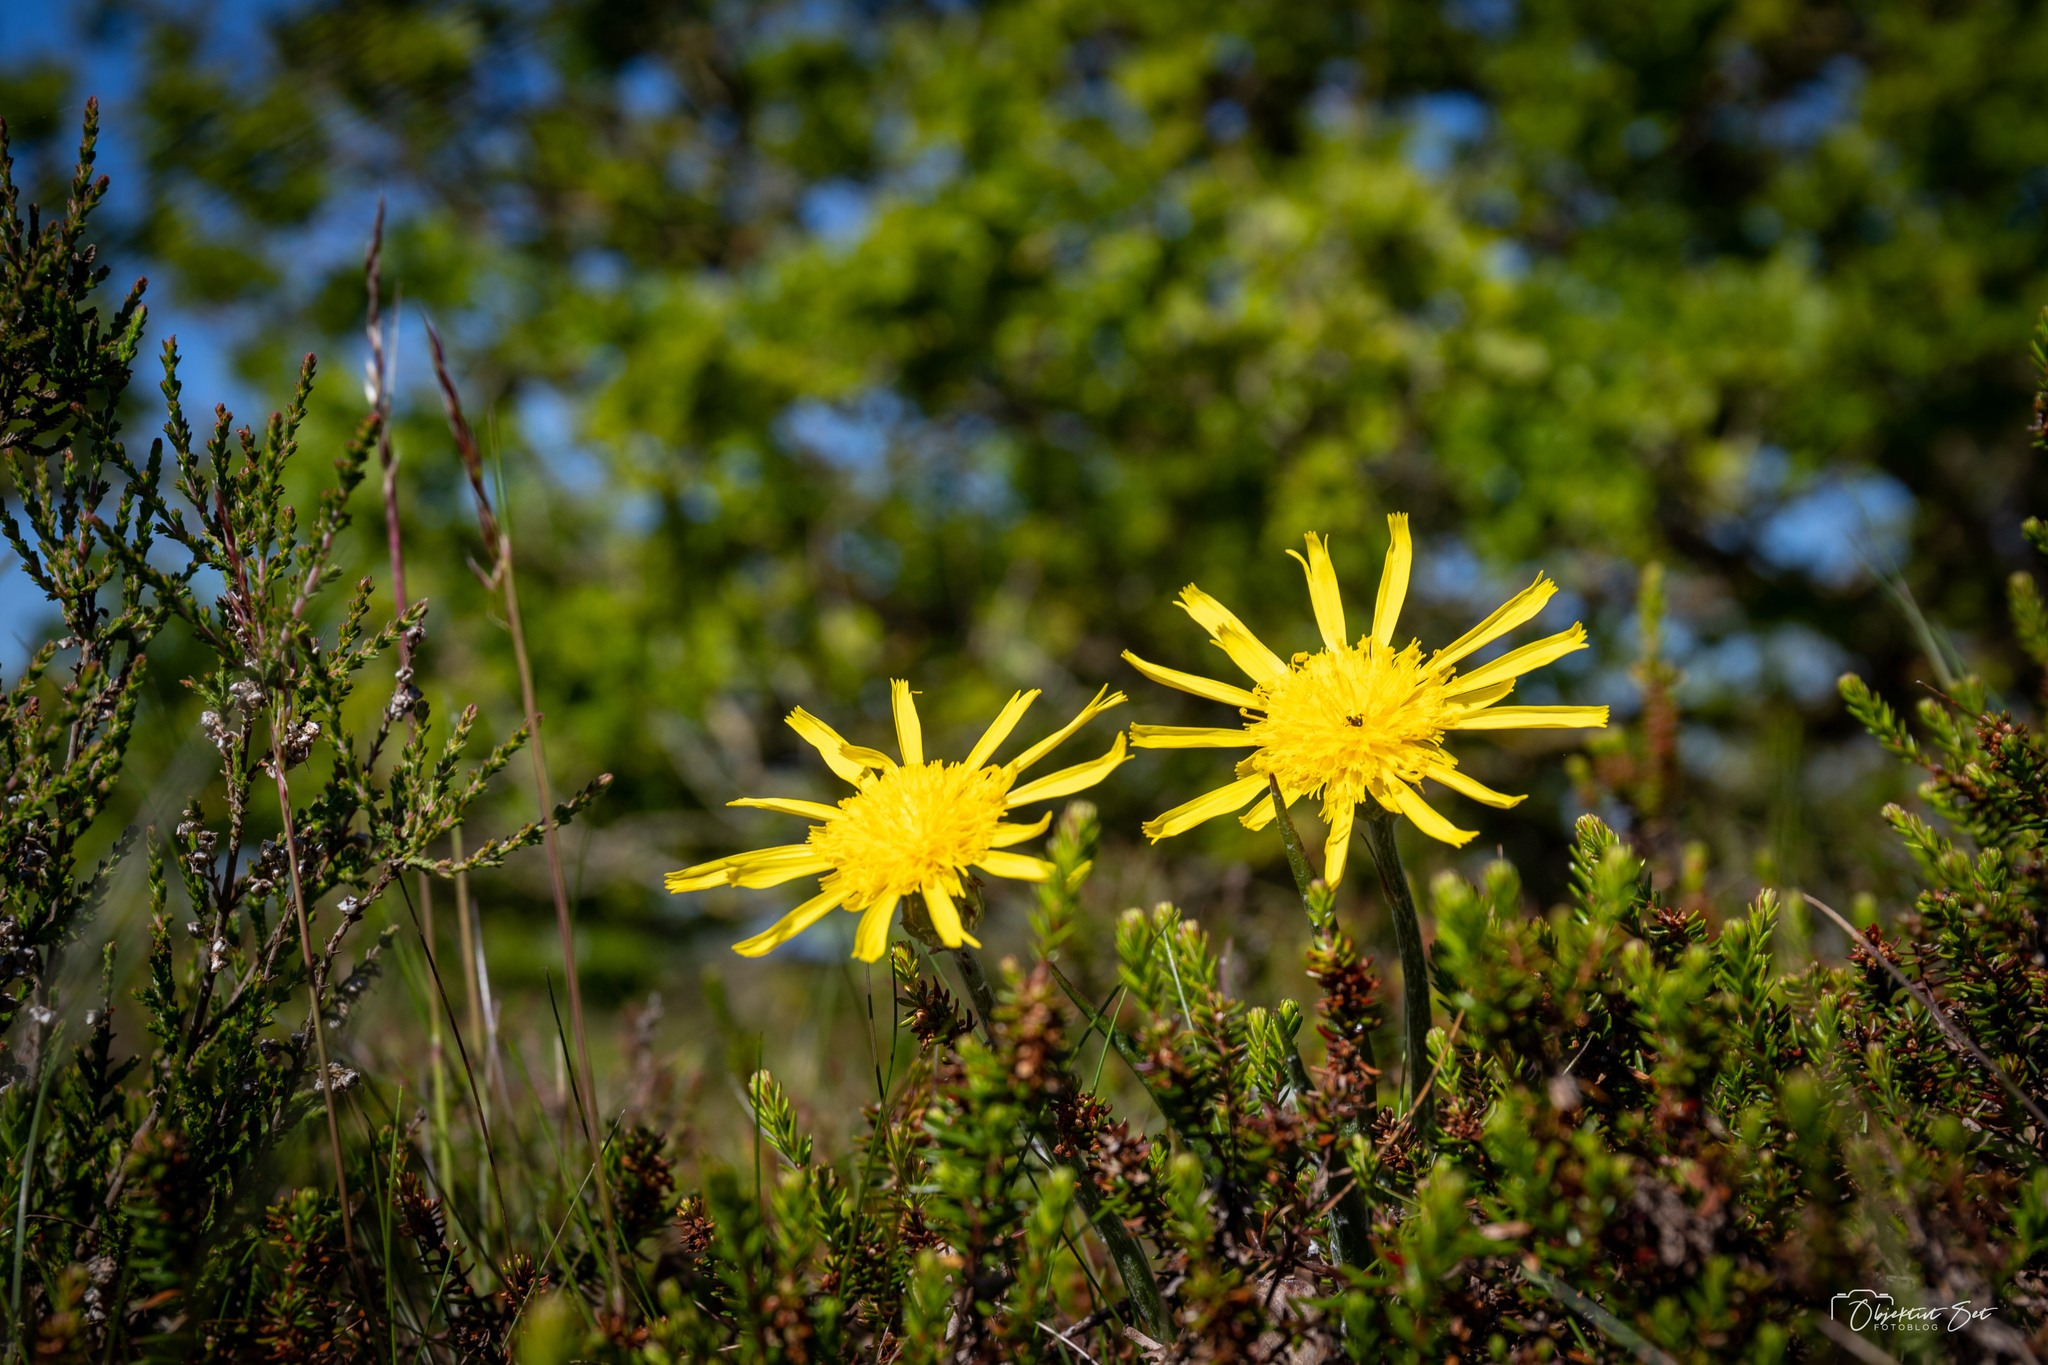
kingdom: Plantae
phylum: Tracheophyta
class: Magnoliopsida
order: Asterales
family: Asteraceae
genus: Scorzonera
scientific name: Scorzonera humilis
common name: Lav skorsoner
